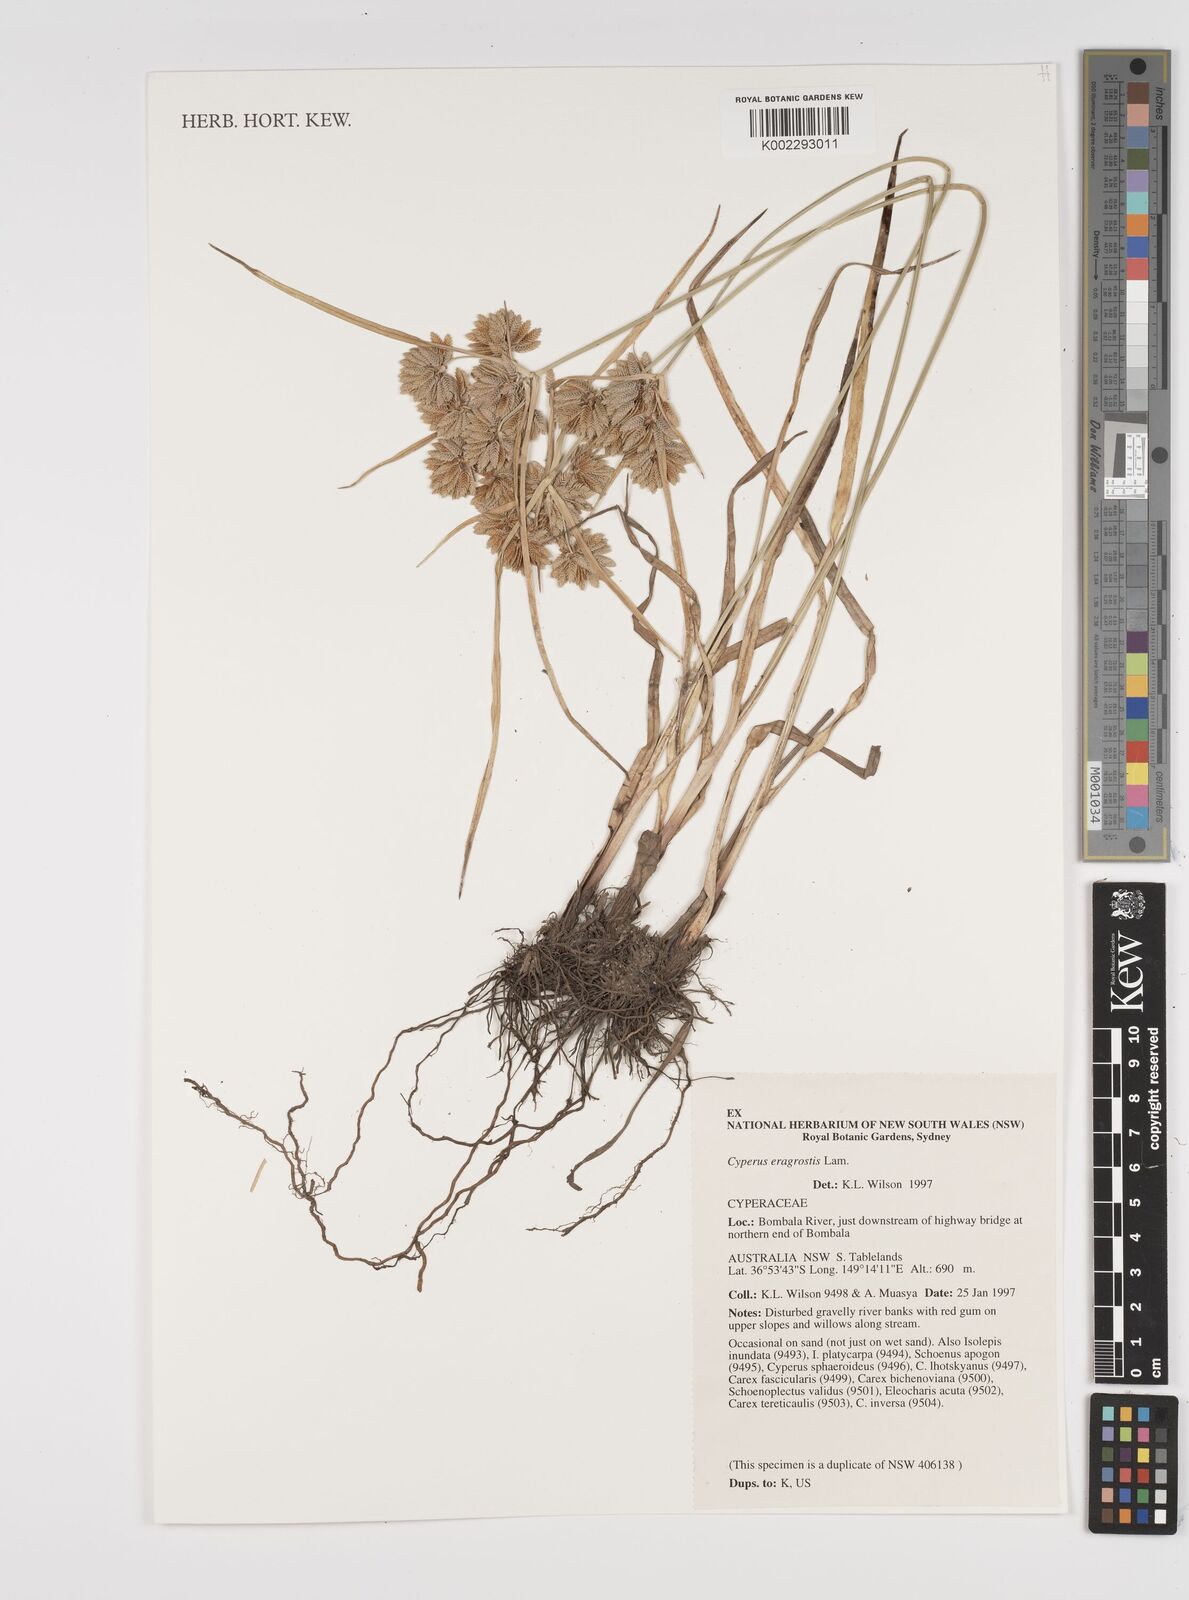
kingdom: Plantae
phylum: Tracheophyta
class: Liliopsida
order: Poales
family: Cyperaceae
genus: Cyperus
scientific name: Cyperus eragrostis
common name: Tall flatsedge
